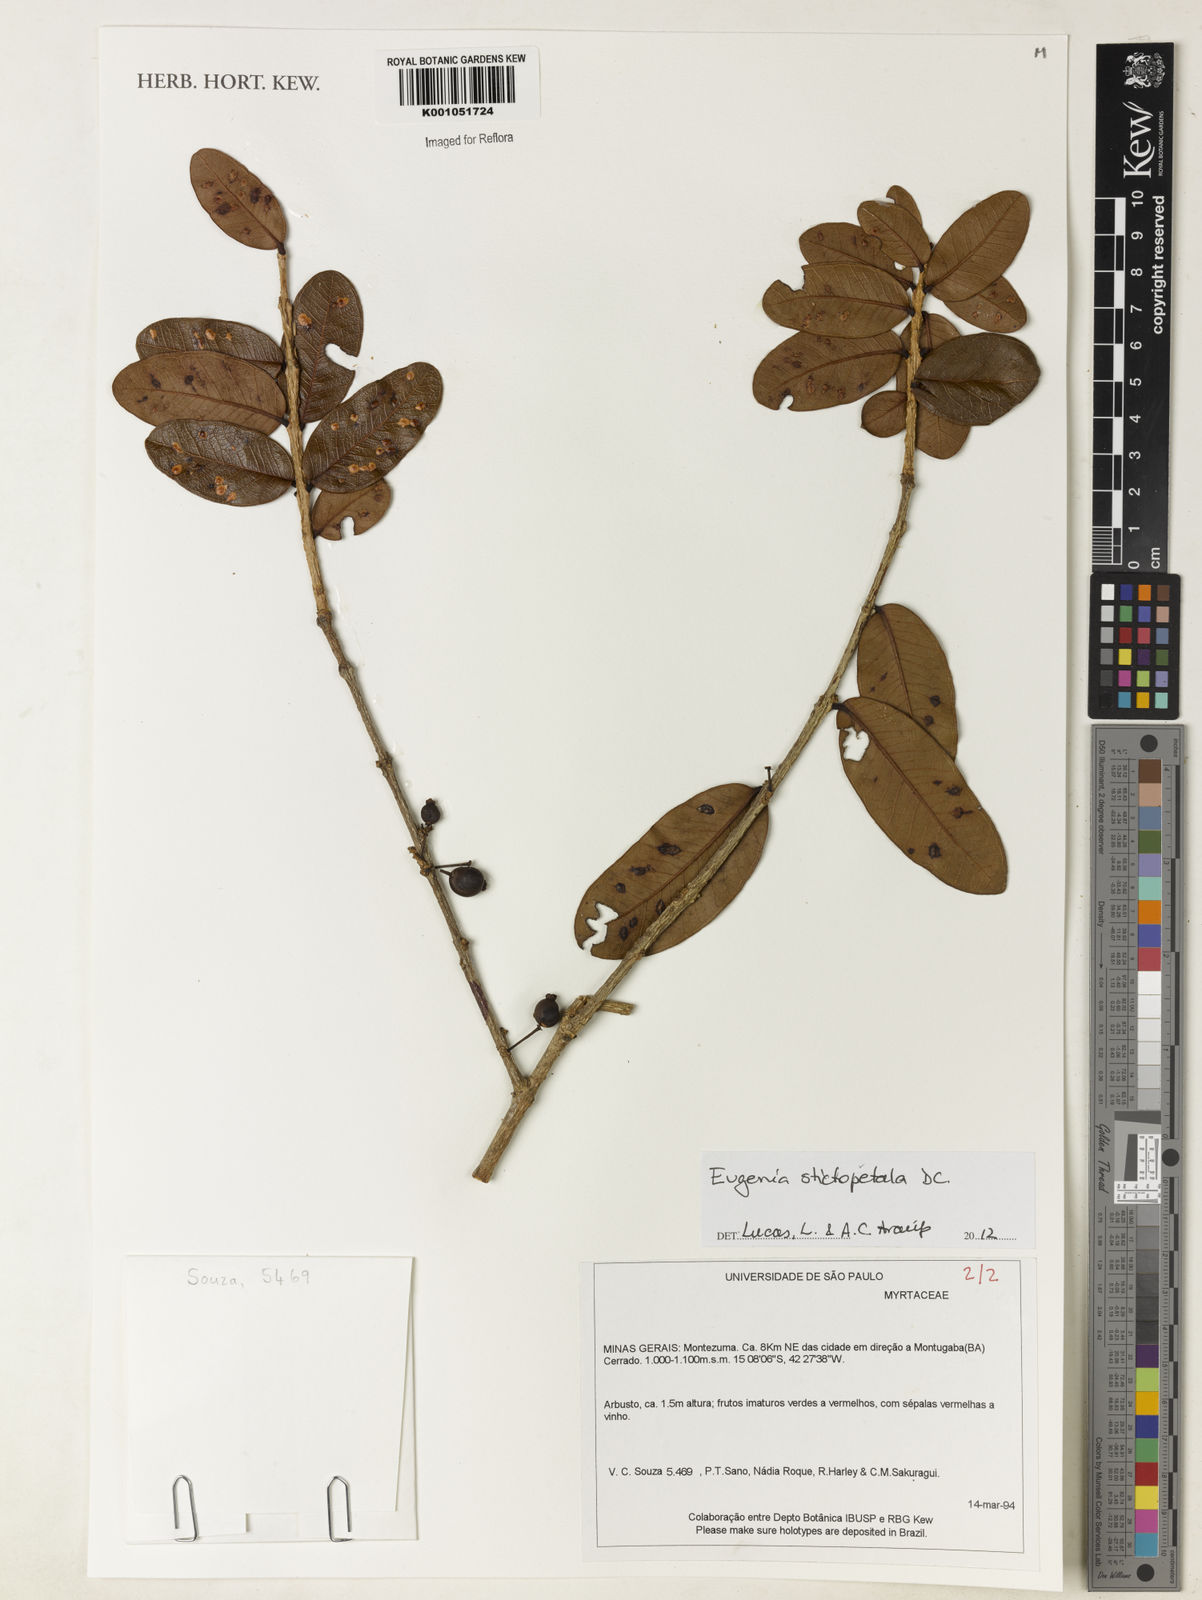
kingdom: Plantae
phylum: Tracheophyta
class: Magnoliopsida
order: Myrtales
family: Myrtaceae
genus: Eugenia
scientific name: Eugenia stictopetala
